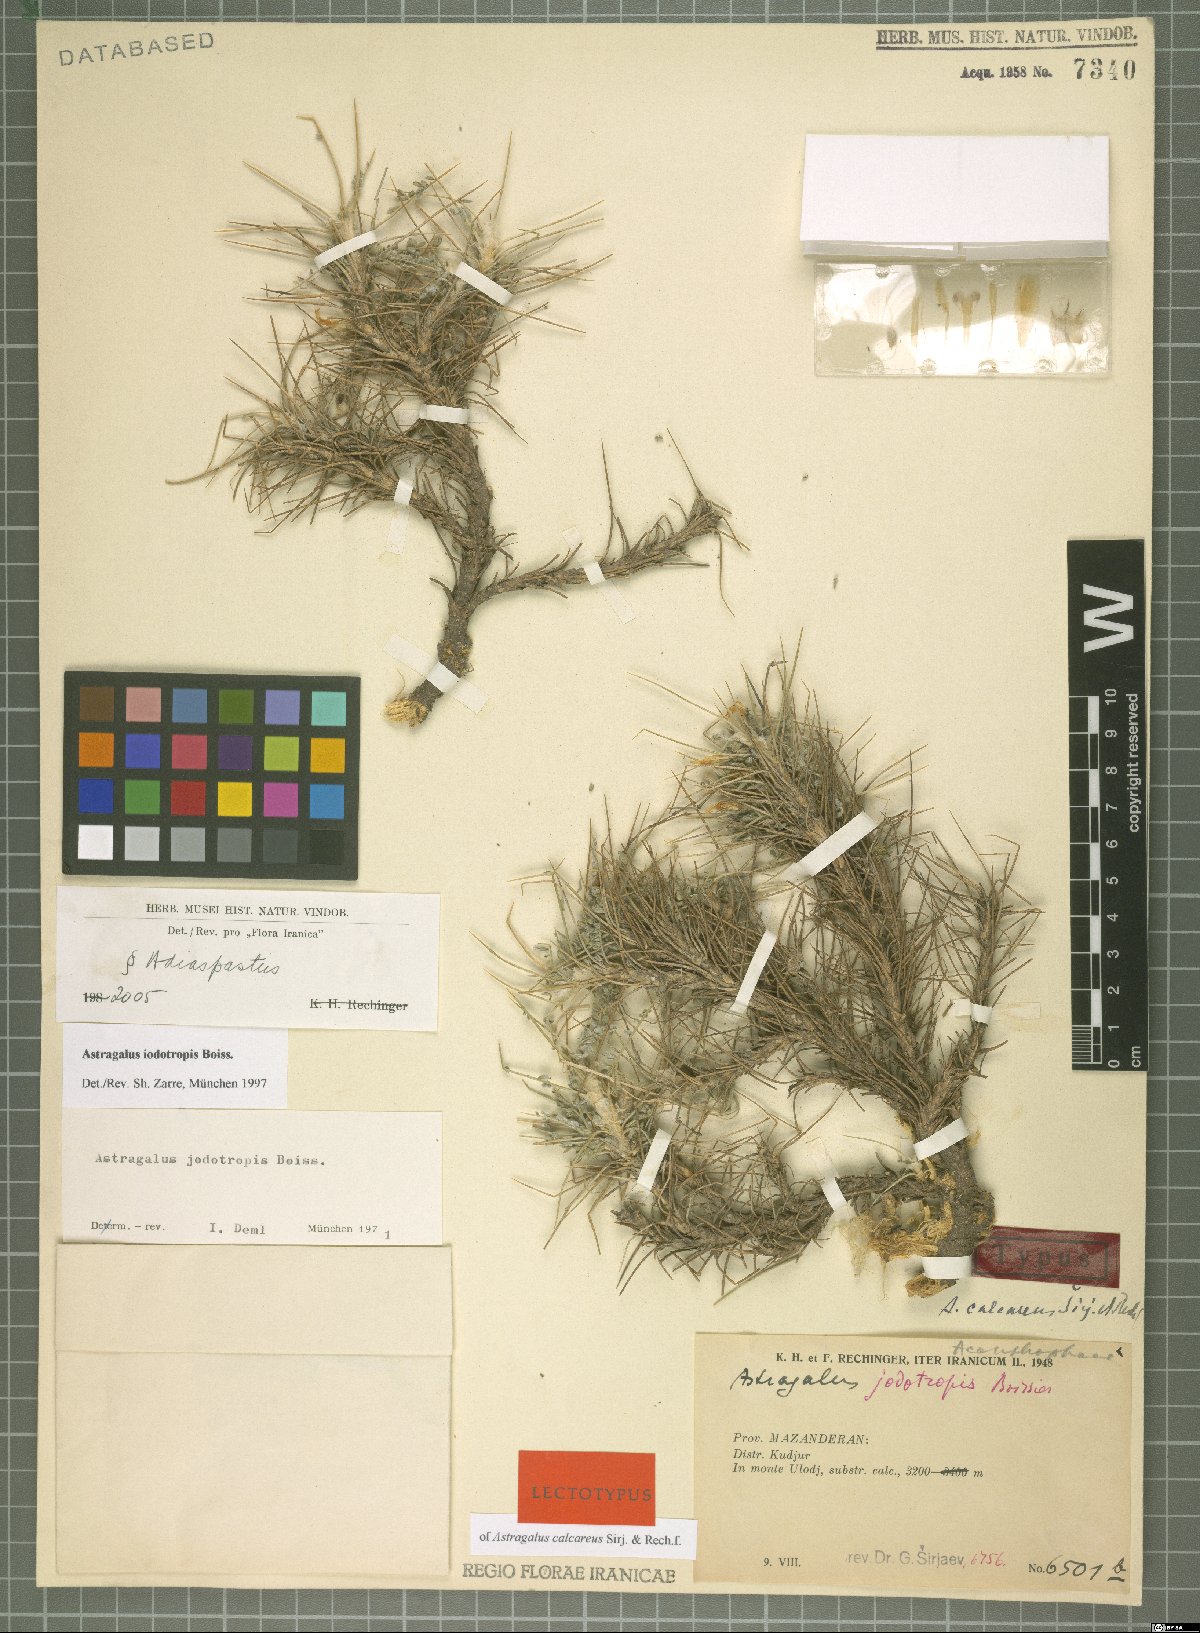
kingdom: Plantae
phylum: Tracheophyta
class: Magnoliopsida
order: Fabales
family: Fabaceae
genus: Astragalus
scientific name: Astragalus iodotropis
